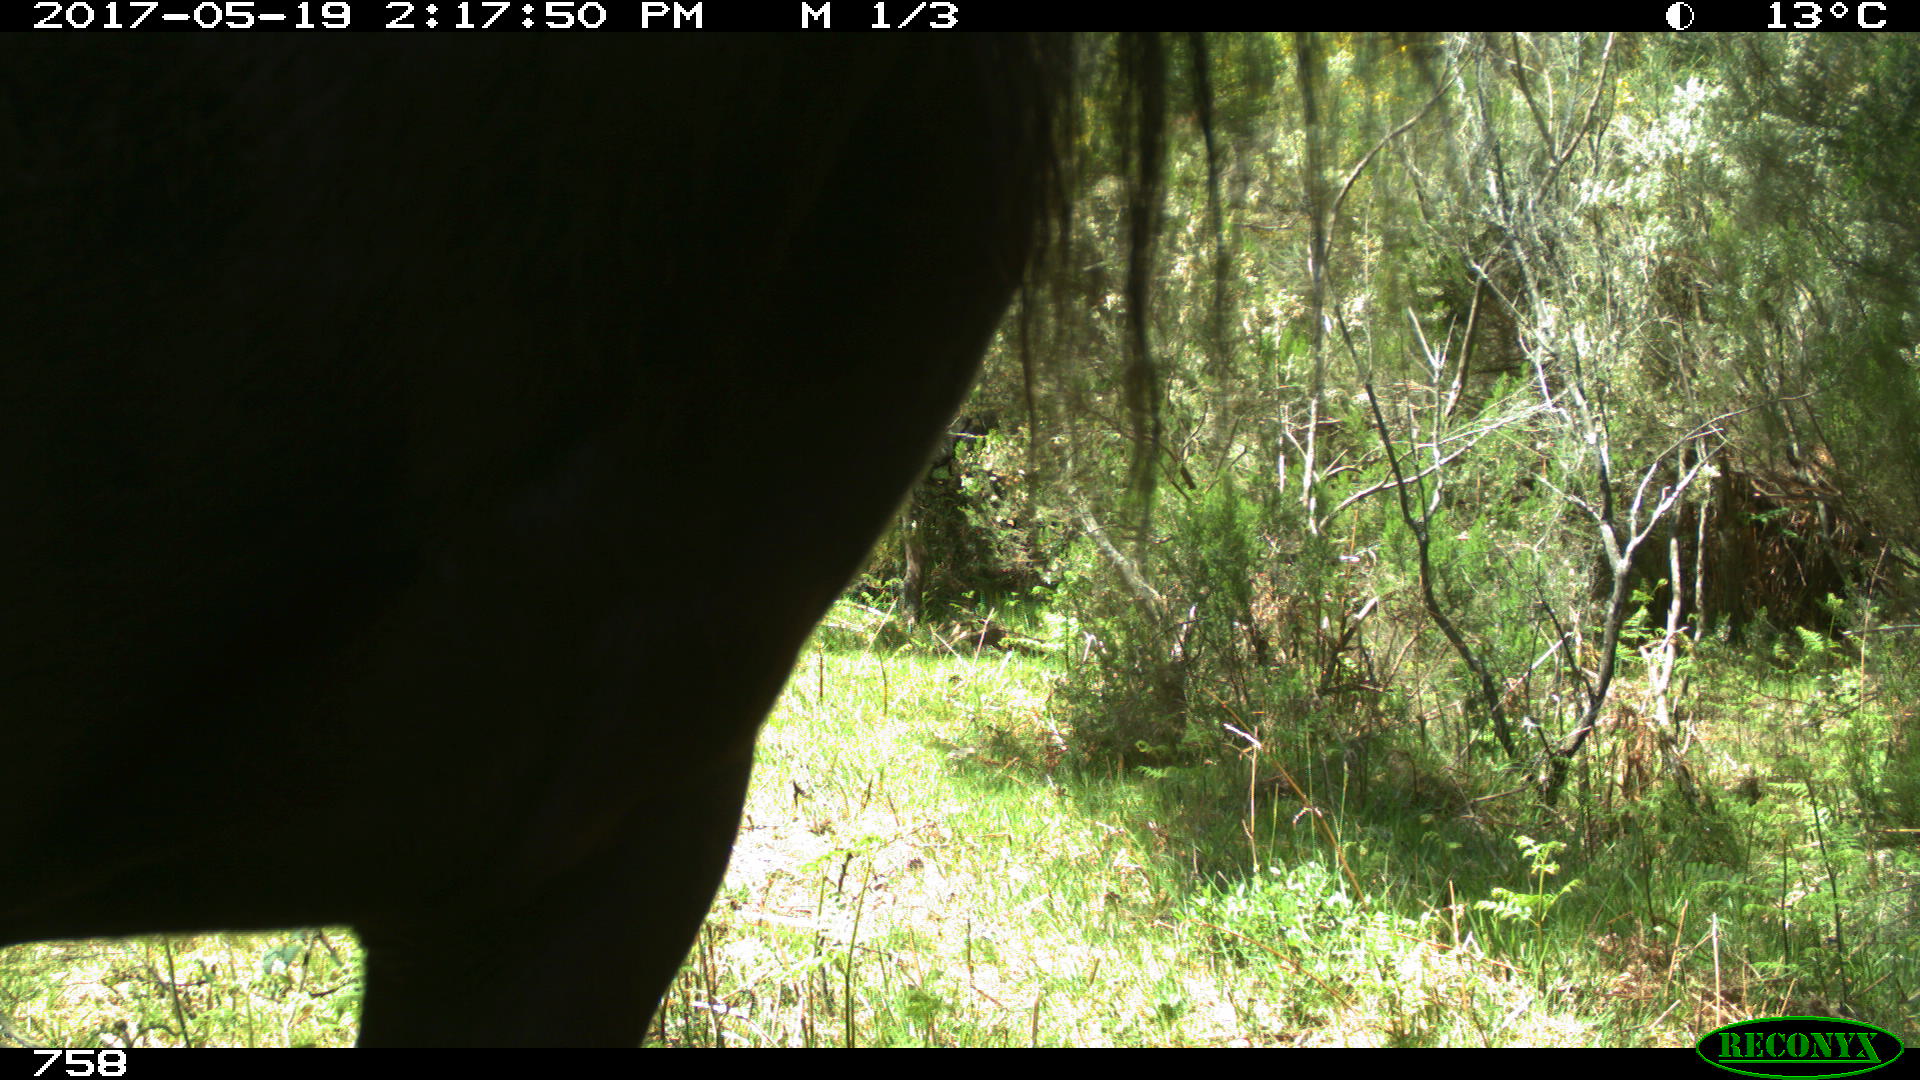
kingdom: Animalia
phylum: Chordata
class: Mammalia
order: Perissodactyla
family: Equidae
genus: Equus
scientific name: Equus caballus
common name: Horse
